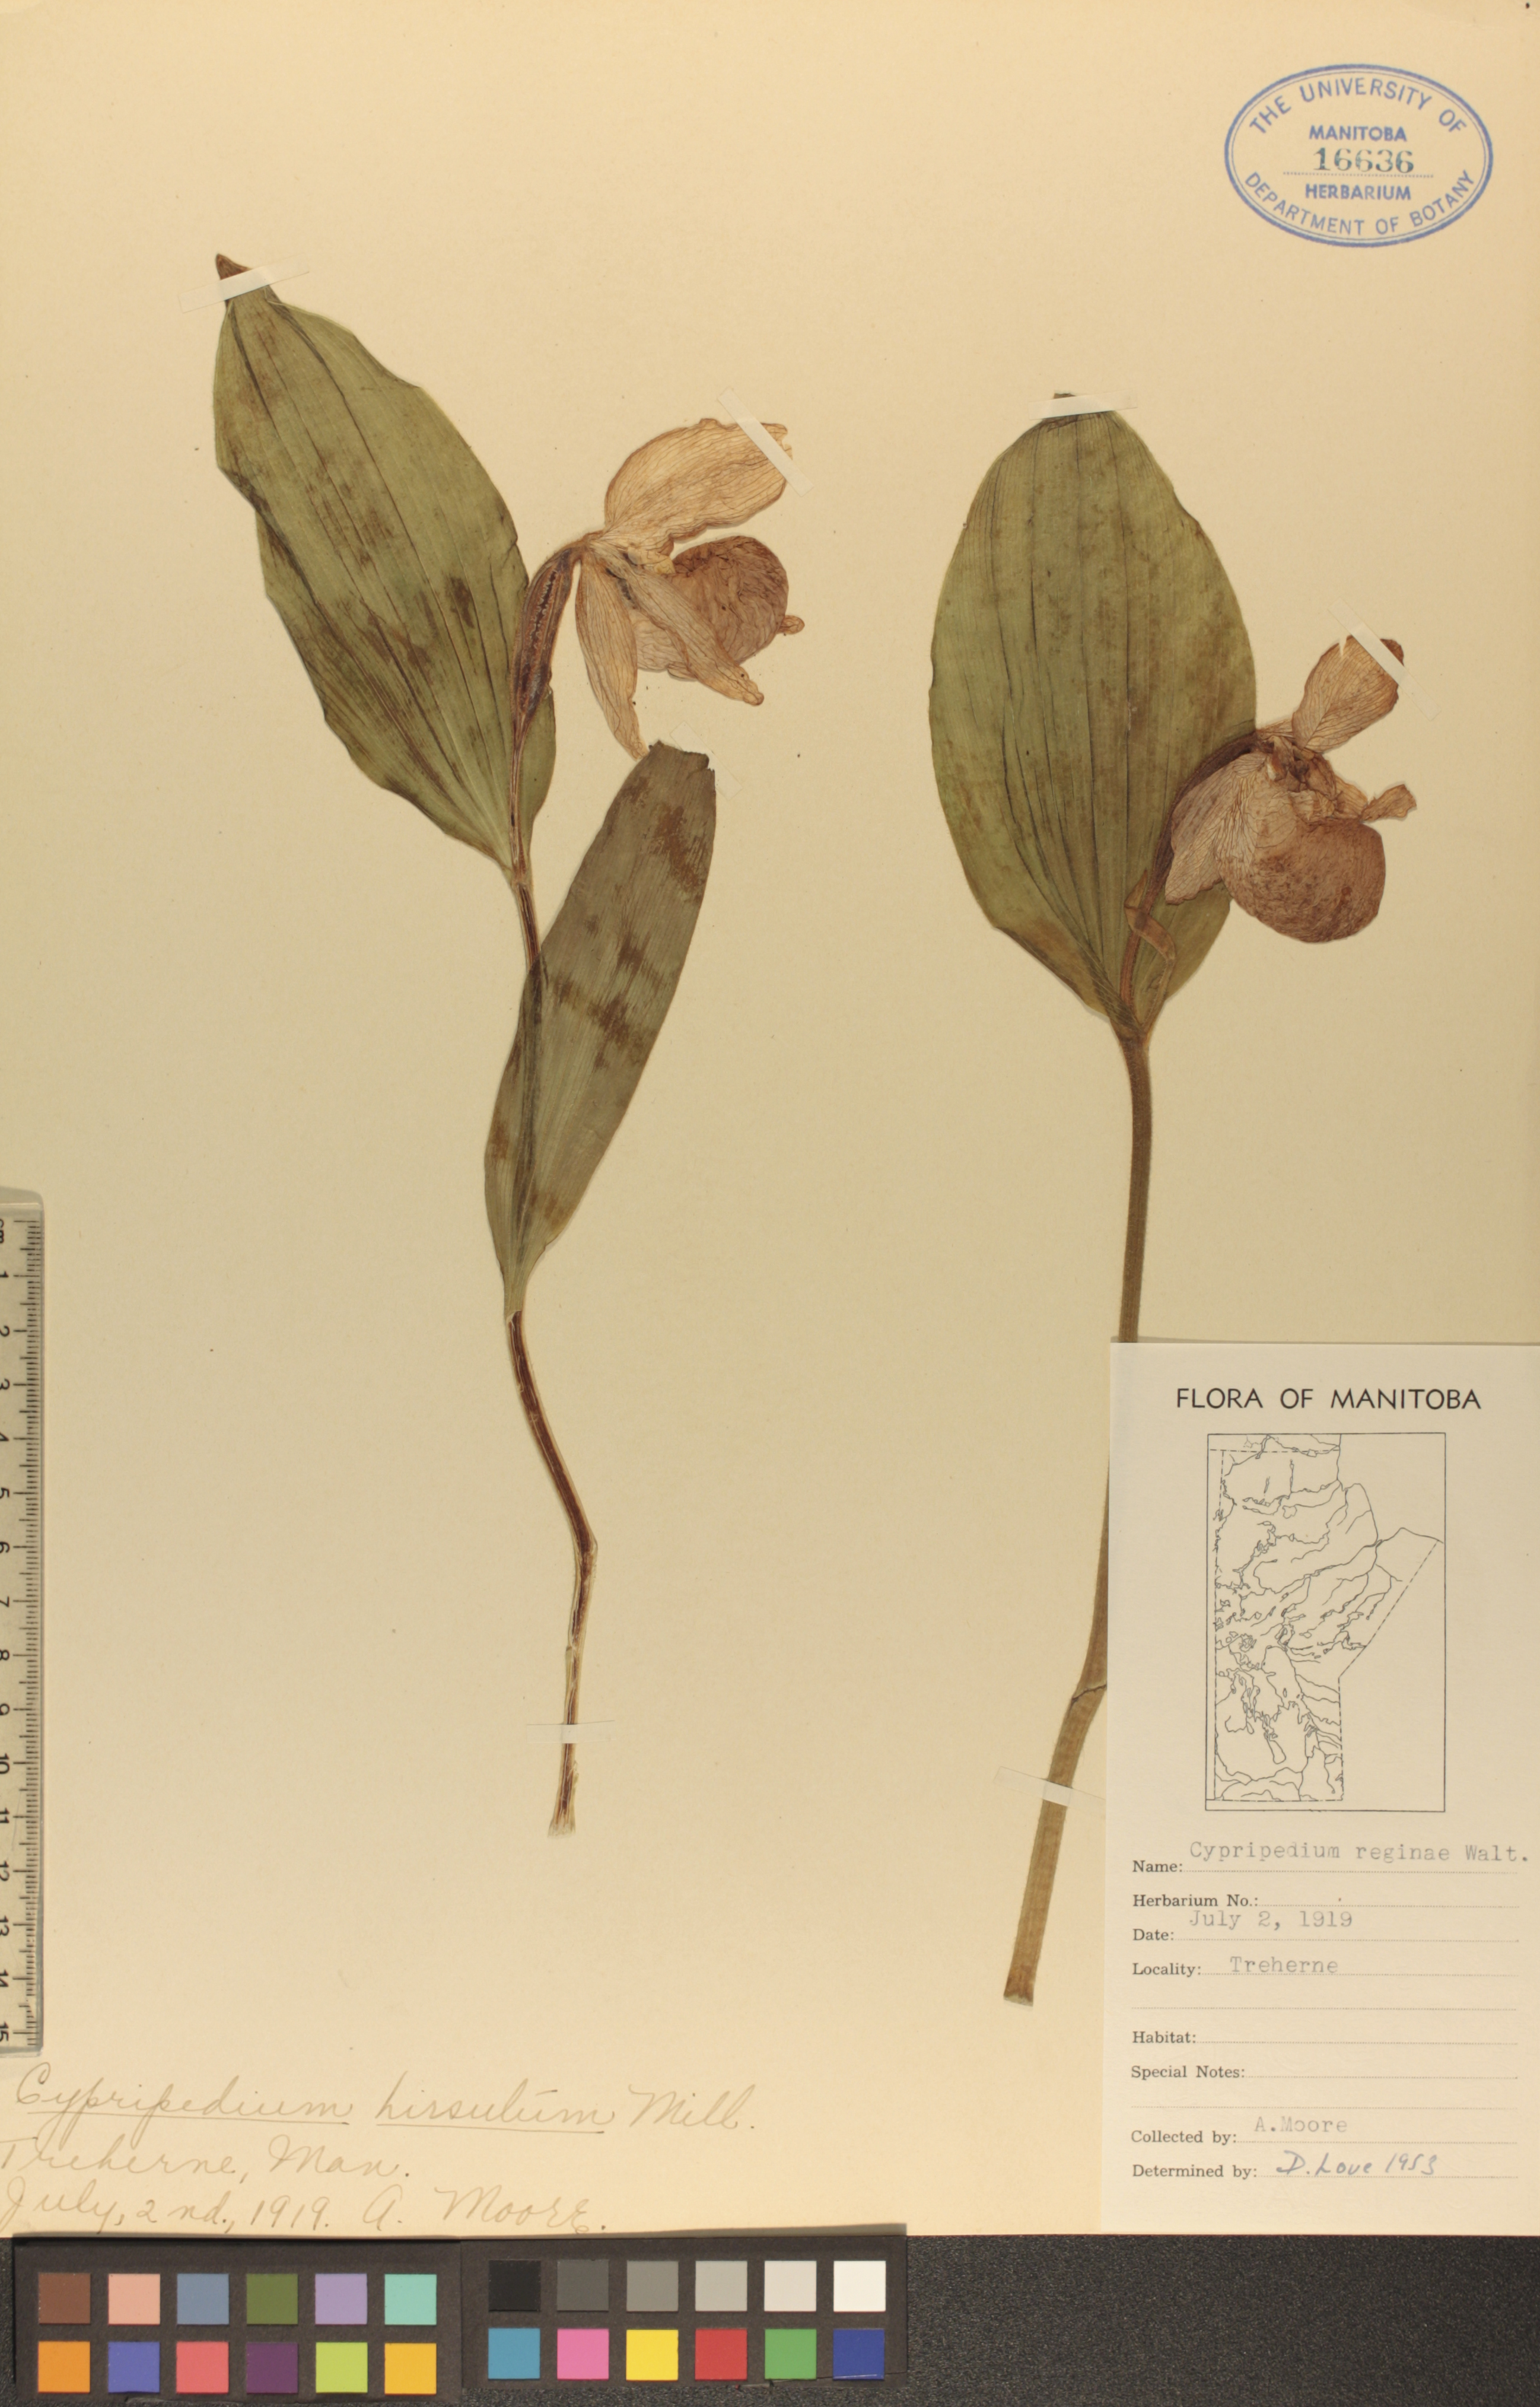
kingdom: Plantae
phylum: Tracheophyta
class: Liliopsida
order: Asparagales
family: Orchidaceae
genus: Cypripedium
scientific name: Cypripedium reginae
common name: Queen lady's-slipper
